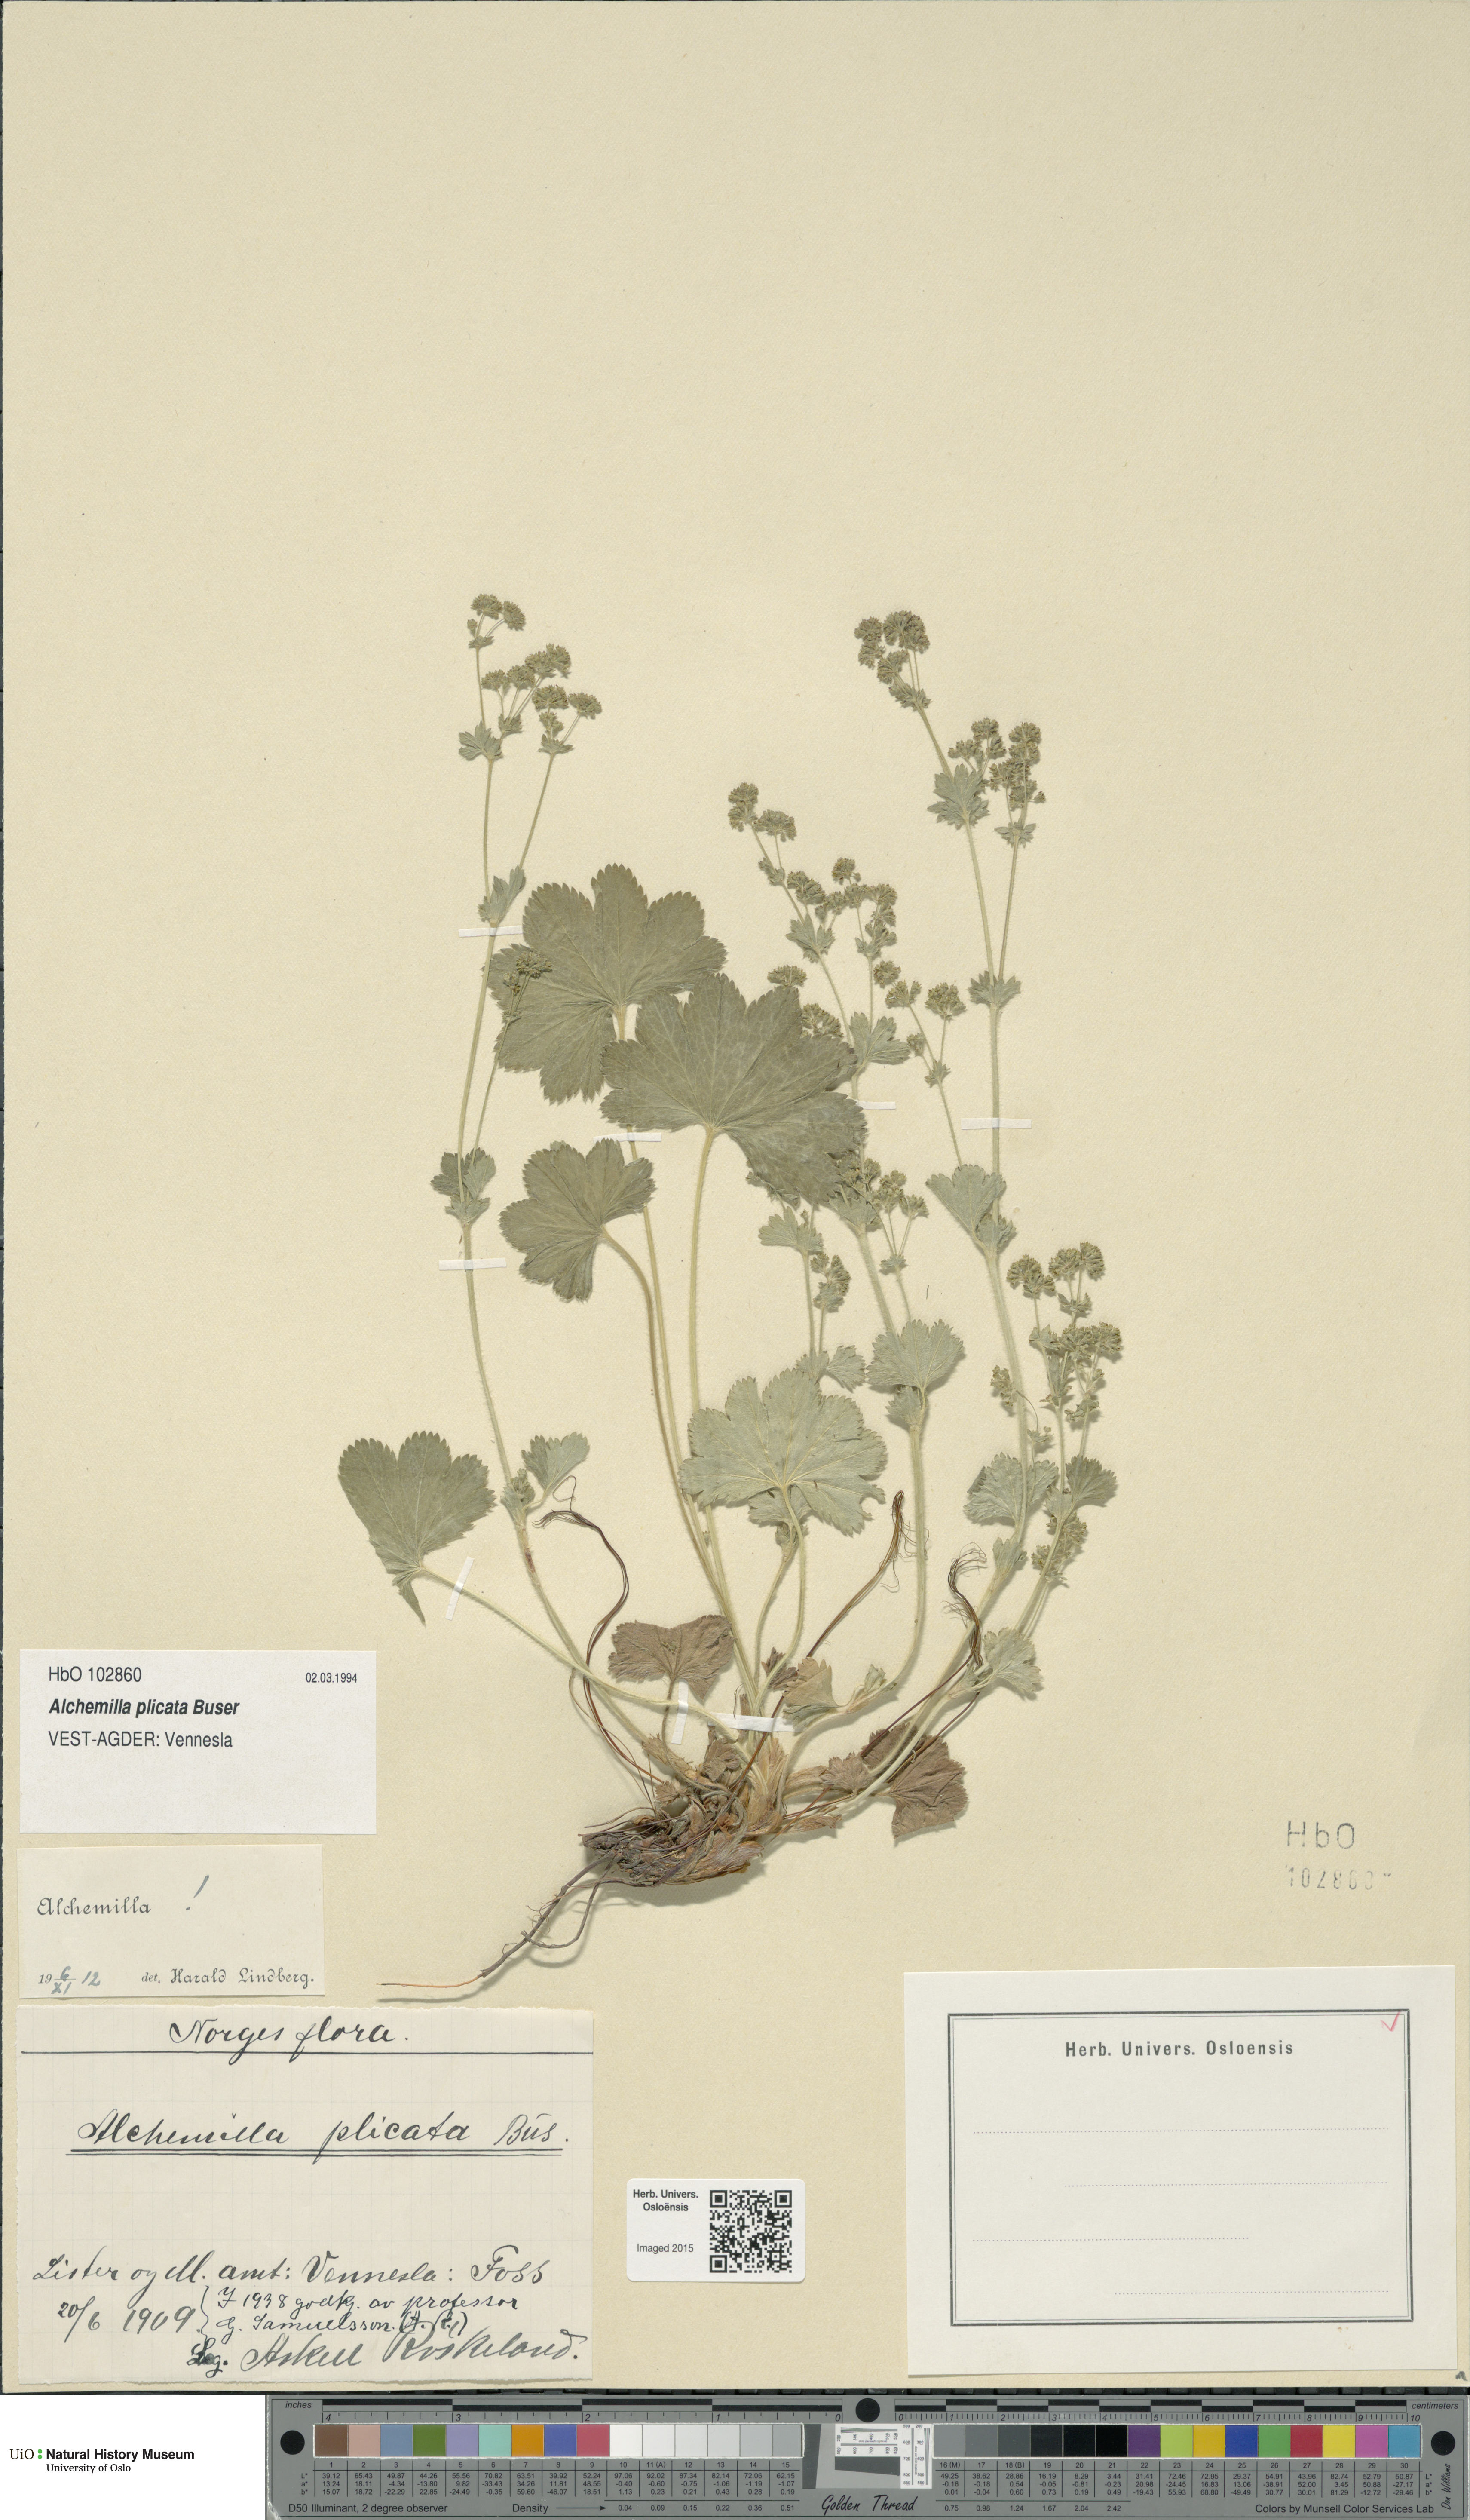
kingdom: Plantae
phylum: Tracheophyta
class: Magnoliopsida
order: Rosales
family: Rosaceae
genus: Alchemilla
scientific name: Alchemilla plicata
